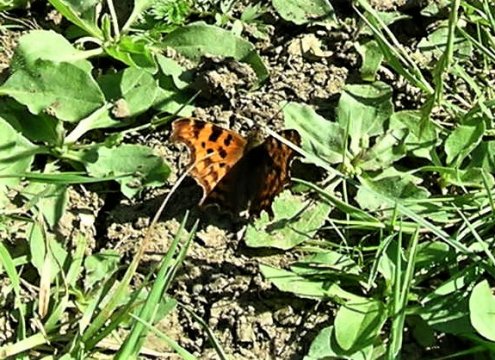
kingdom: Animalia
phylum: Arthropoda
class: Insecta
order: Lepidoptera
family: Nymphalidae
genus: Polygonia
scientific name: Polygonia c-album
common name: Comma
